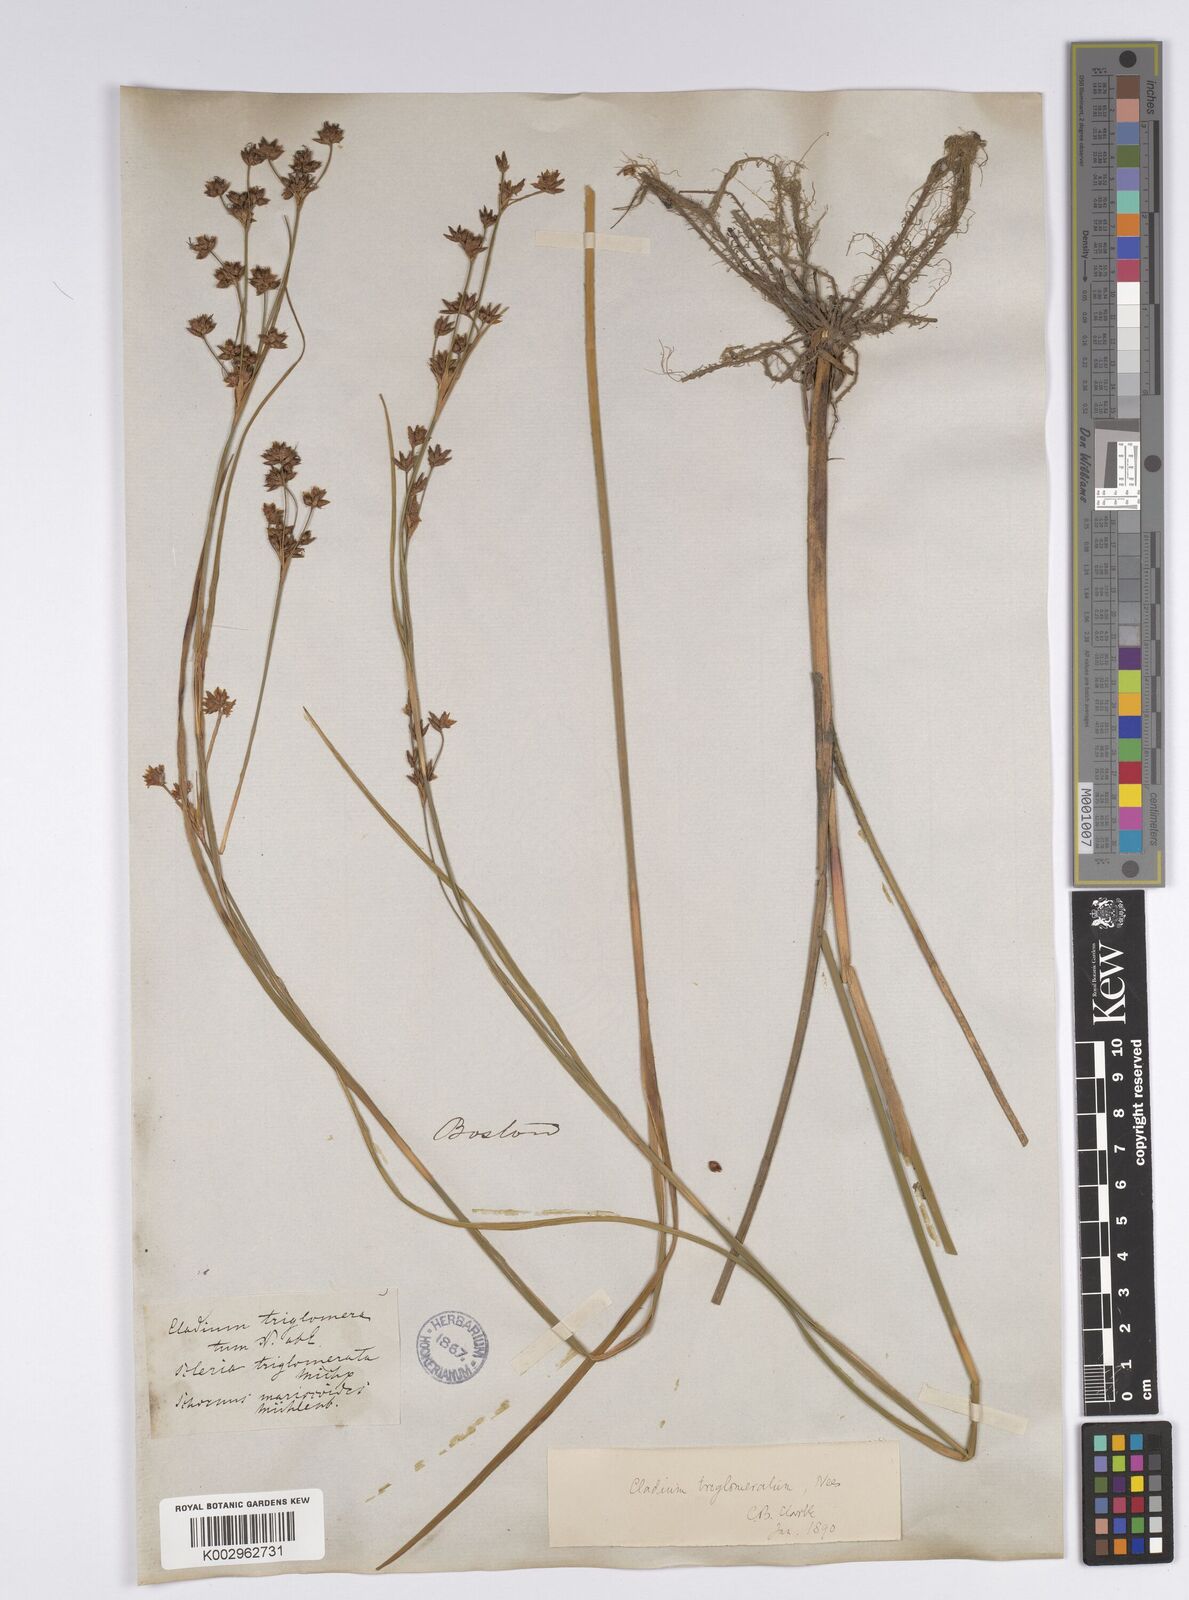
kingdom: Plantae
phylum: Tracheophyta
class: Liliopsida
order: Poales
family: Cyperaceae
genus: Cladium
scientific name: Cladium mariscoides
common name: Smooth sawgrass
